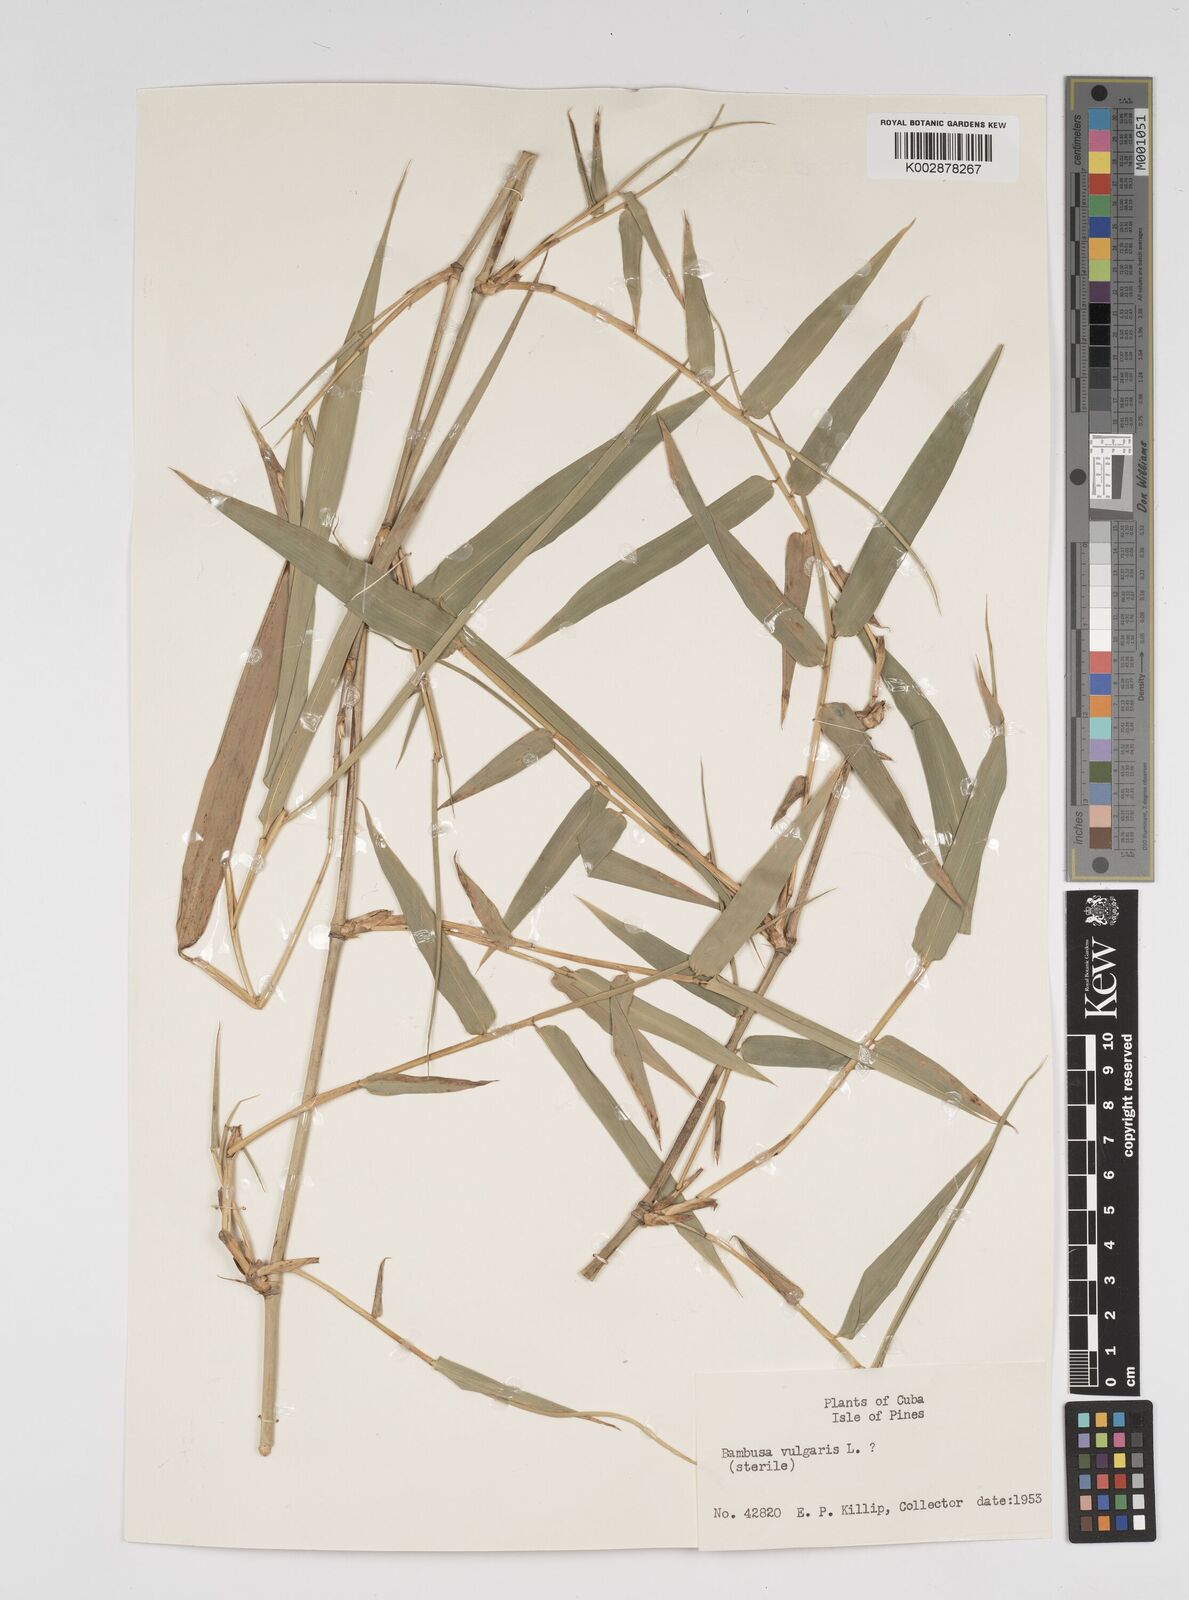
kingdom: Plantae
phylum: Tracheophyta
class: Liliopsida
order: Poales
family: Poaceae
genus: Bambusa
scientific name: Bambusa vulgaris
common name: Common bamboo
